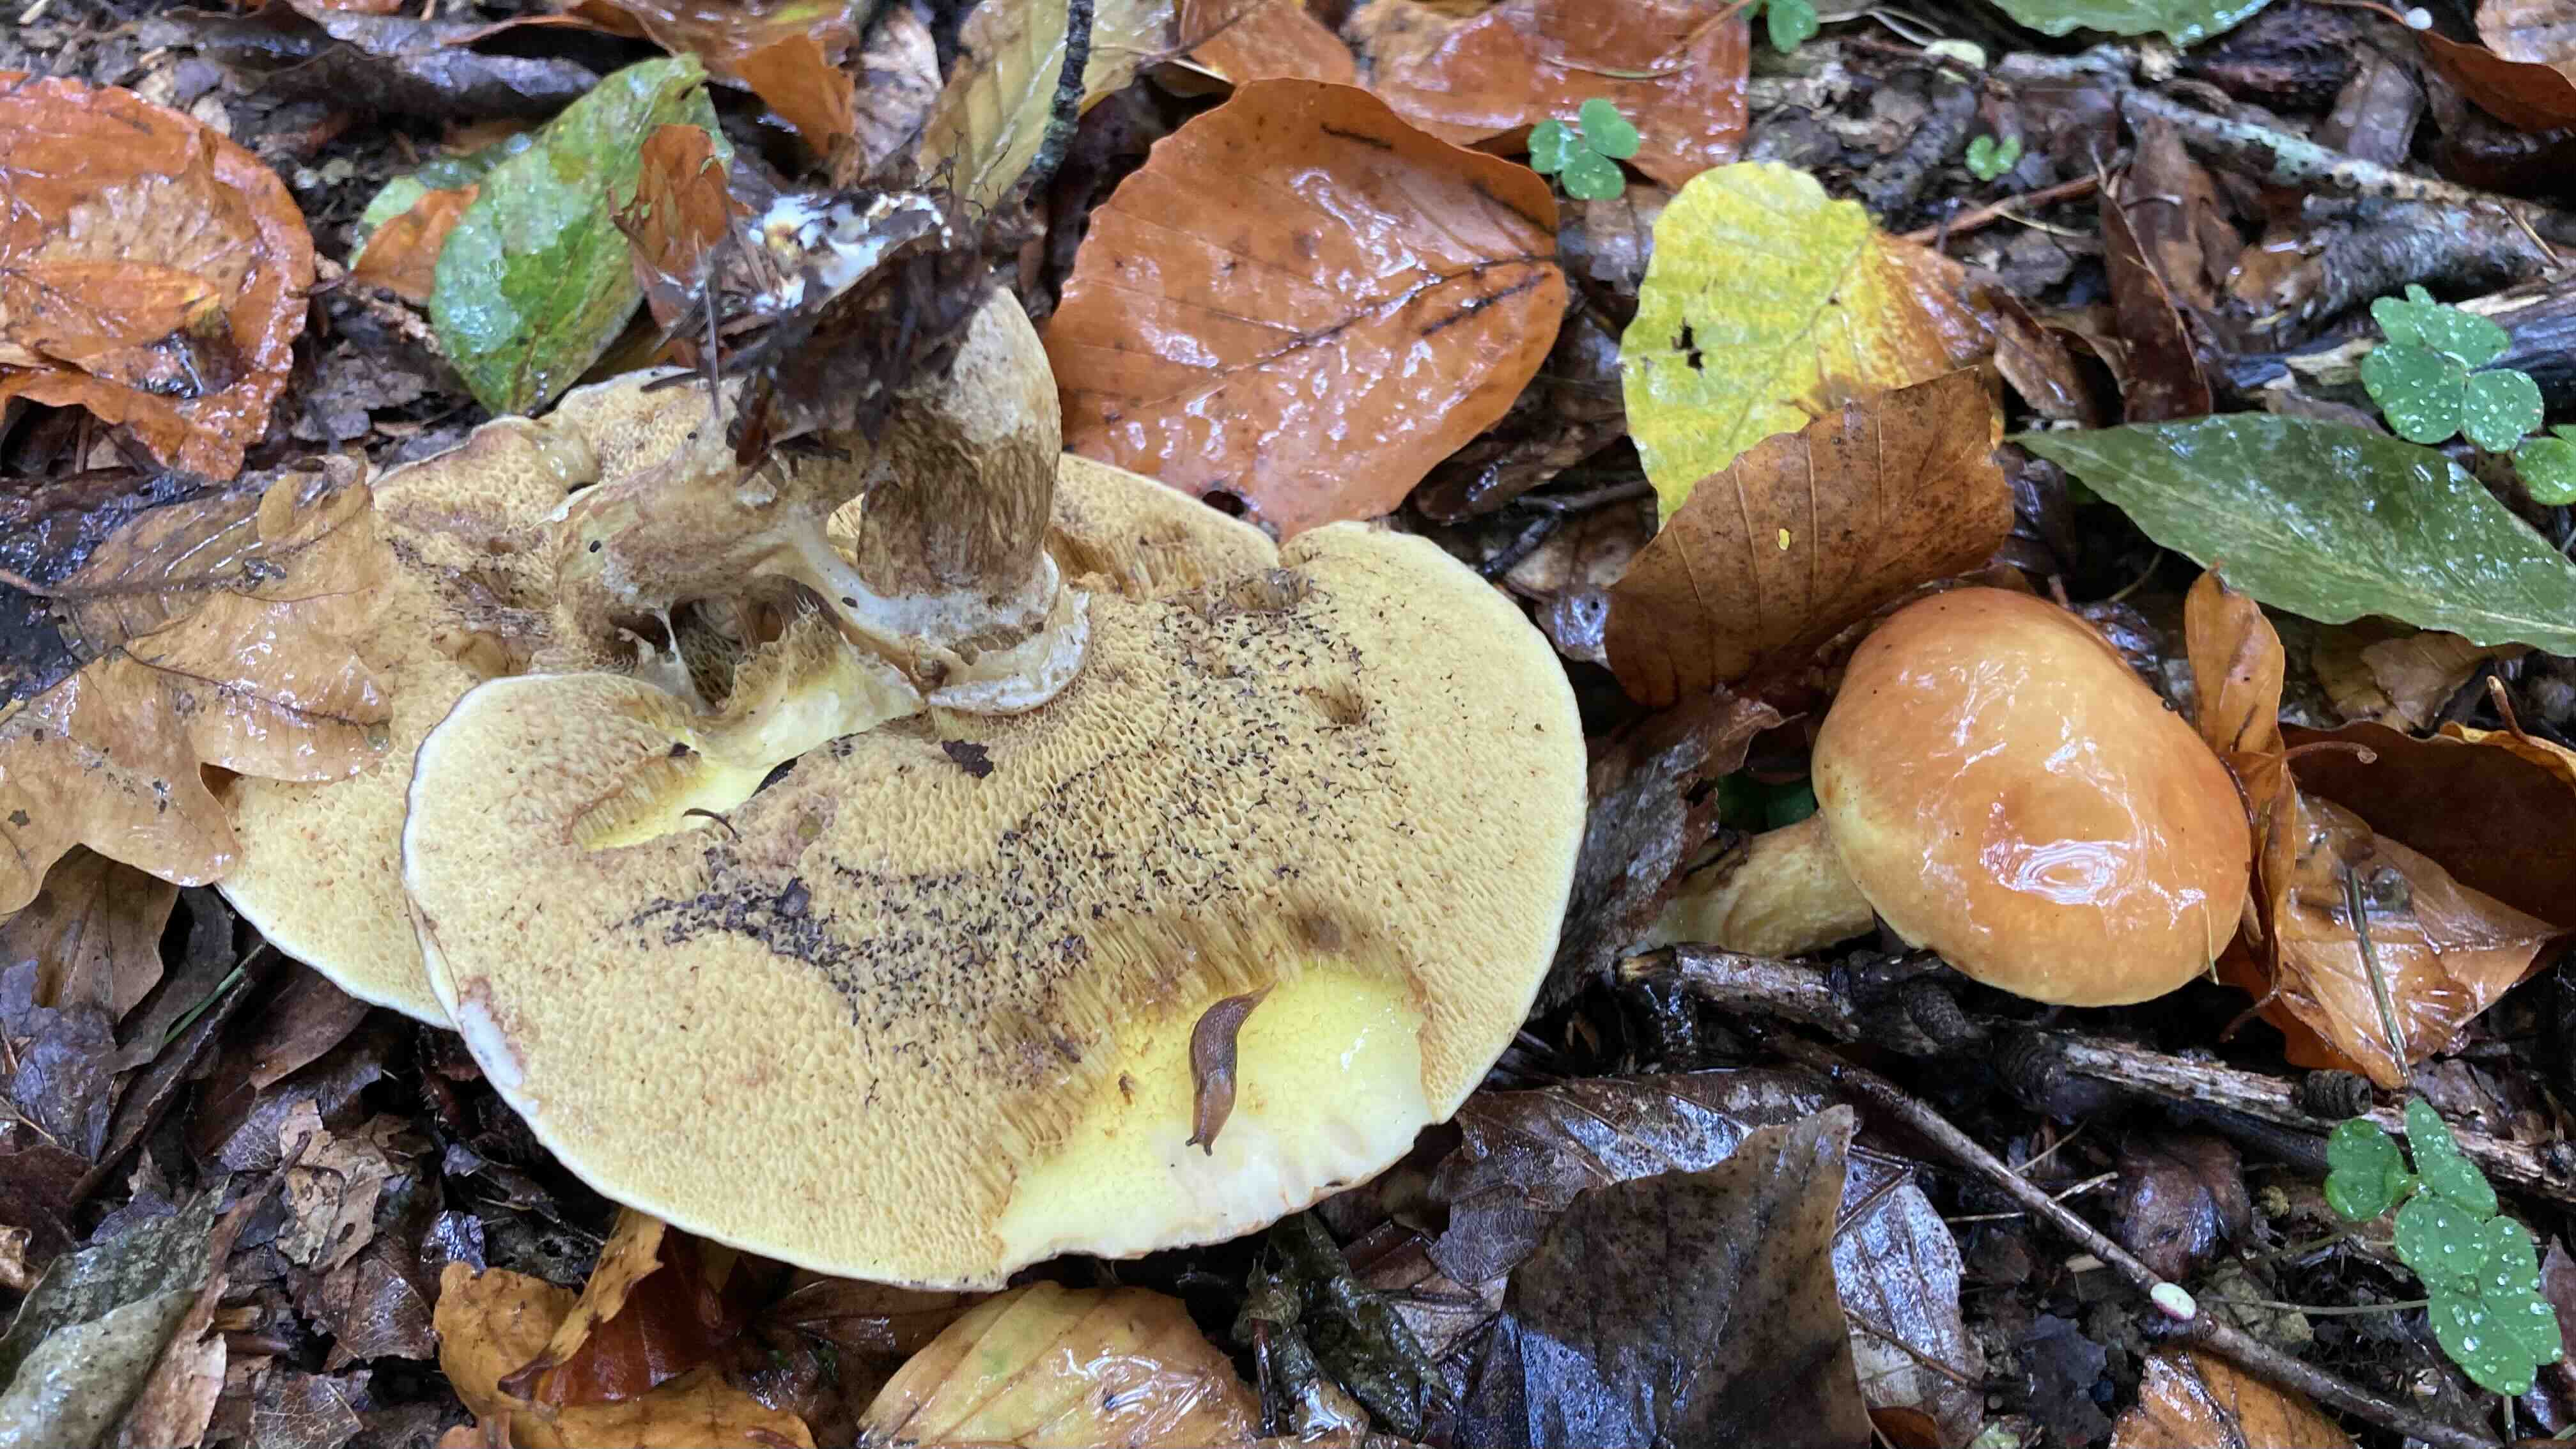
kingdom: Fungi
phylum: Basidiomycota
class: Agaricomycetes
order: Boletales
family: Suillaceae
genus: Suillus
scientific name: Suillus grevillei
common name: lærke-slimrørhat
